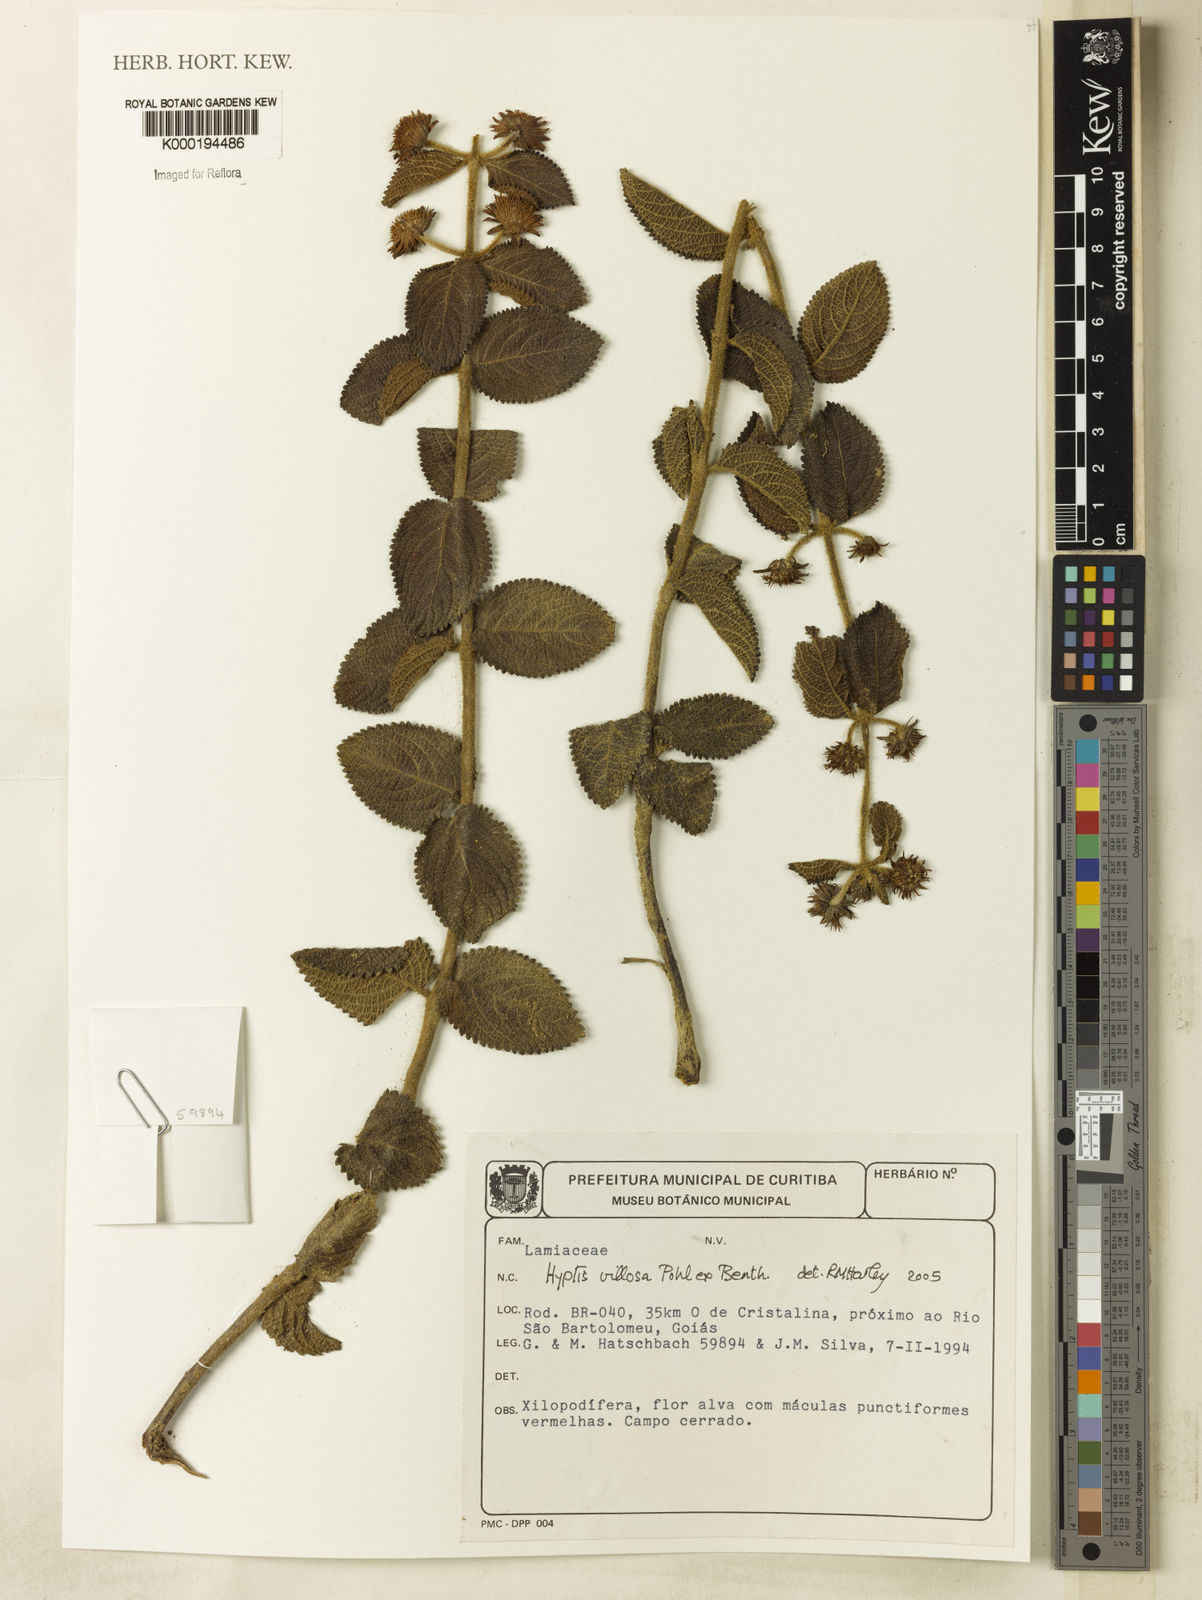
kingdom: Plantae
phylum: Tracheophyta
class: Magnoliopsida
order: Lamiales
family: Lamiaceae
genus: Hyptis
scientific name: Hyptis villosa
